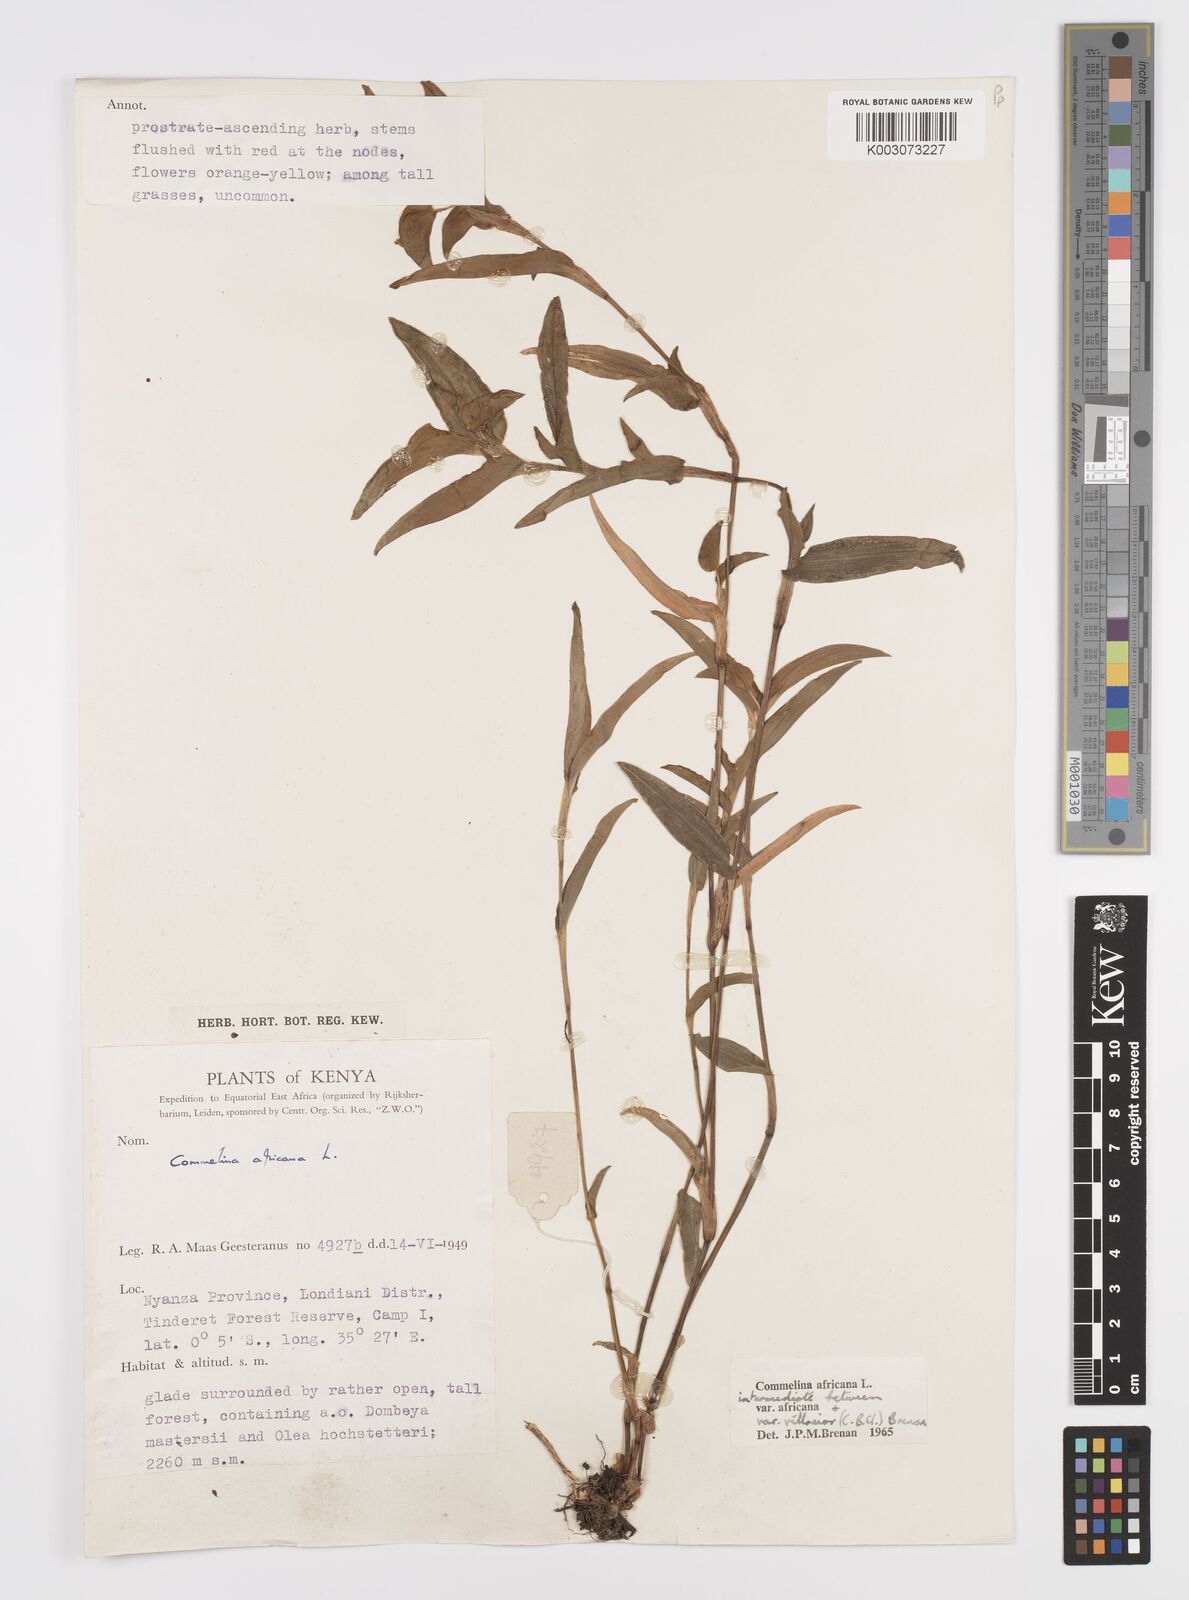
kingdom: Plantae
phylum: Tracheophyta
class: Liliopsida
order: Commelinales
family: Commelinaceae
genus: Commelina
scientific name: Commelina africana
